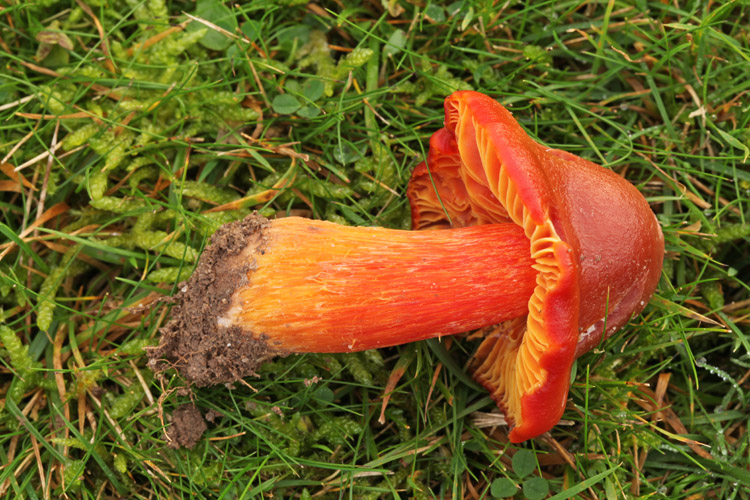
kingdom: Fungi
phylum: Basidiomycota
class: Agaricomycetes
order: Agaricales
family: Hygrophoraceae
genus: Hygrocybe
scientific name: Hygrocybe punicea
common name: skarlagen-vokshat
